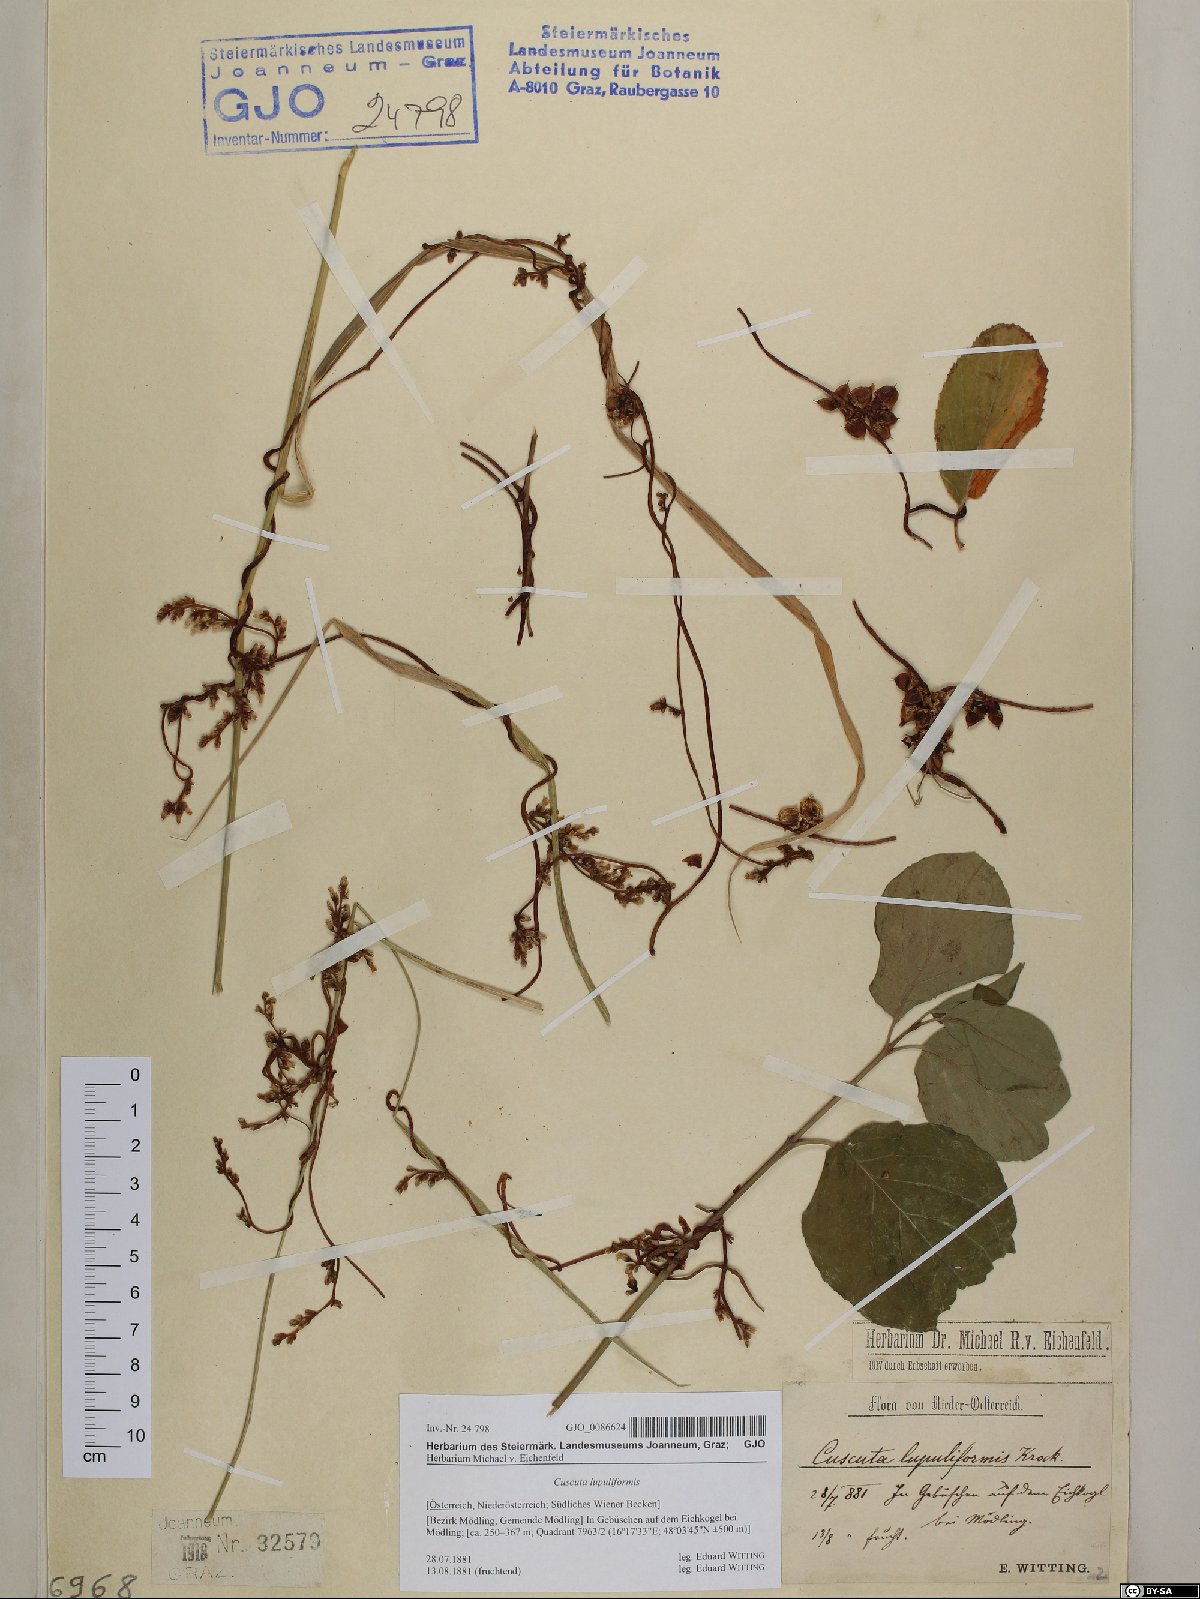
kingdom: Plantae
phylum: Tracheophyta
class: Magnoliopsida
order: Solanales
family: Convolvulaceae
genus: Cuscuta
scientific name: Cuscuta lupuliformis
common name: Hop dodder
